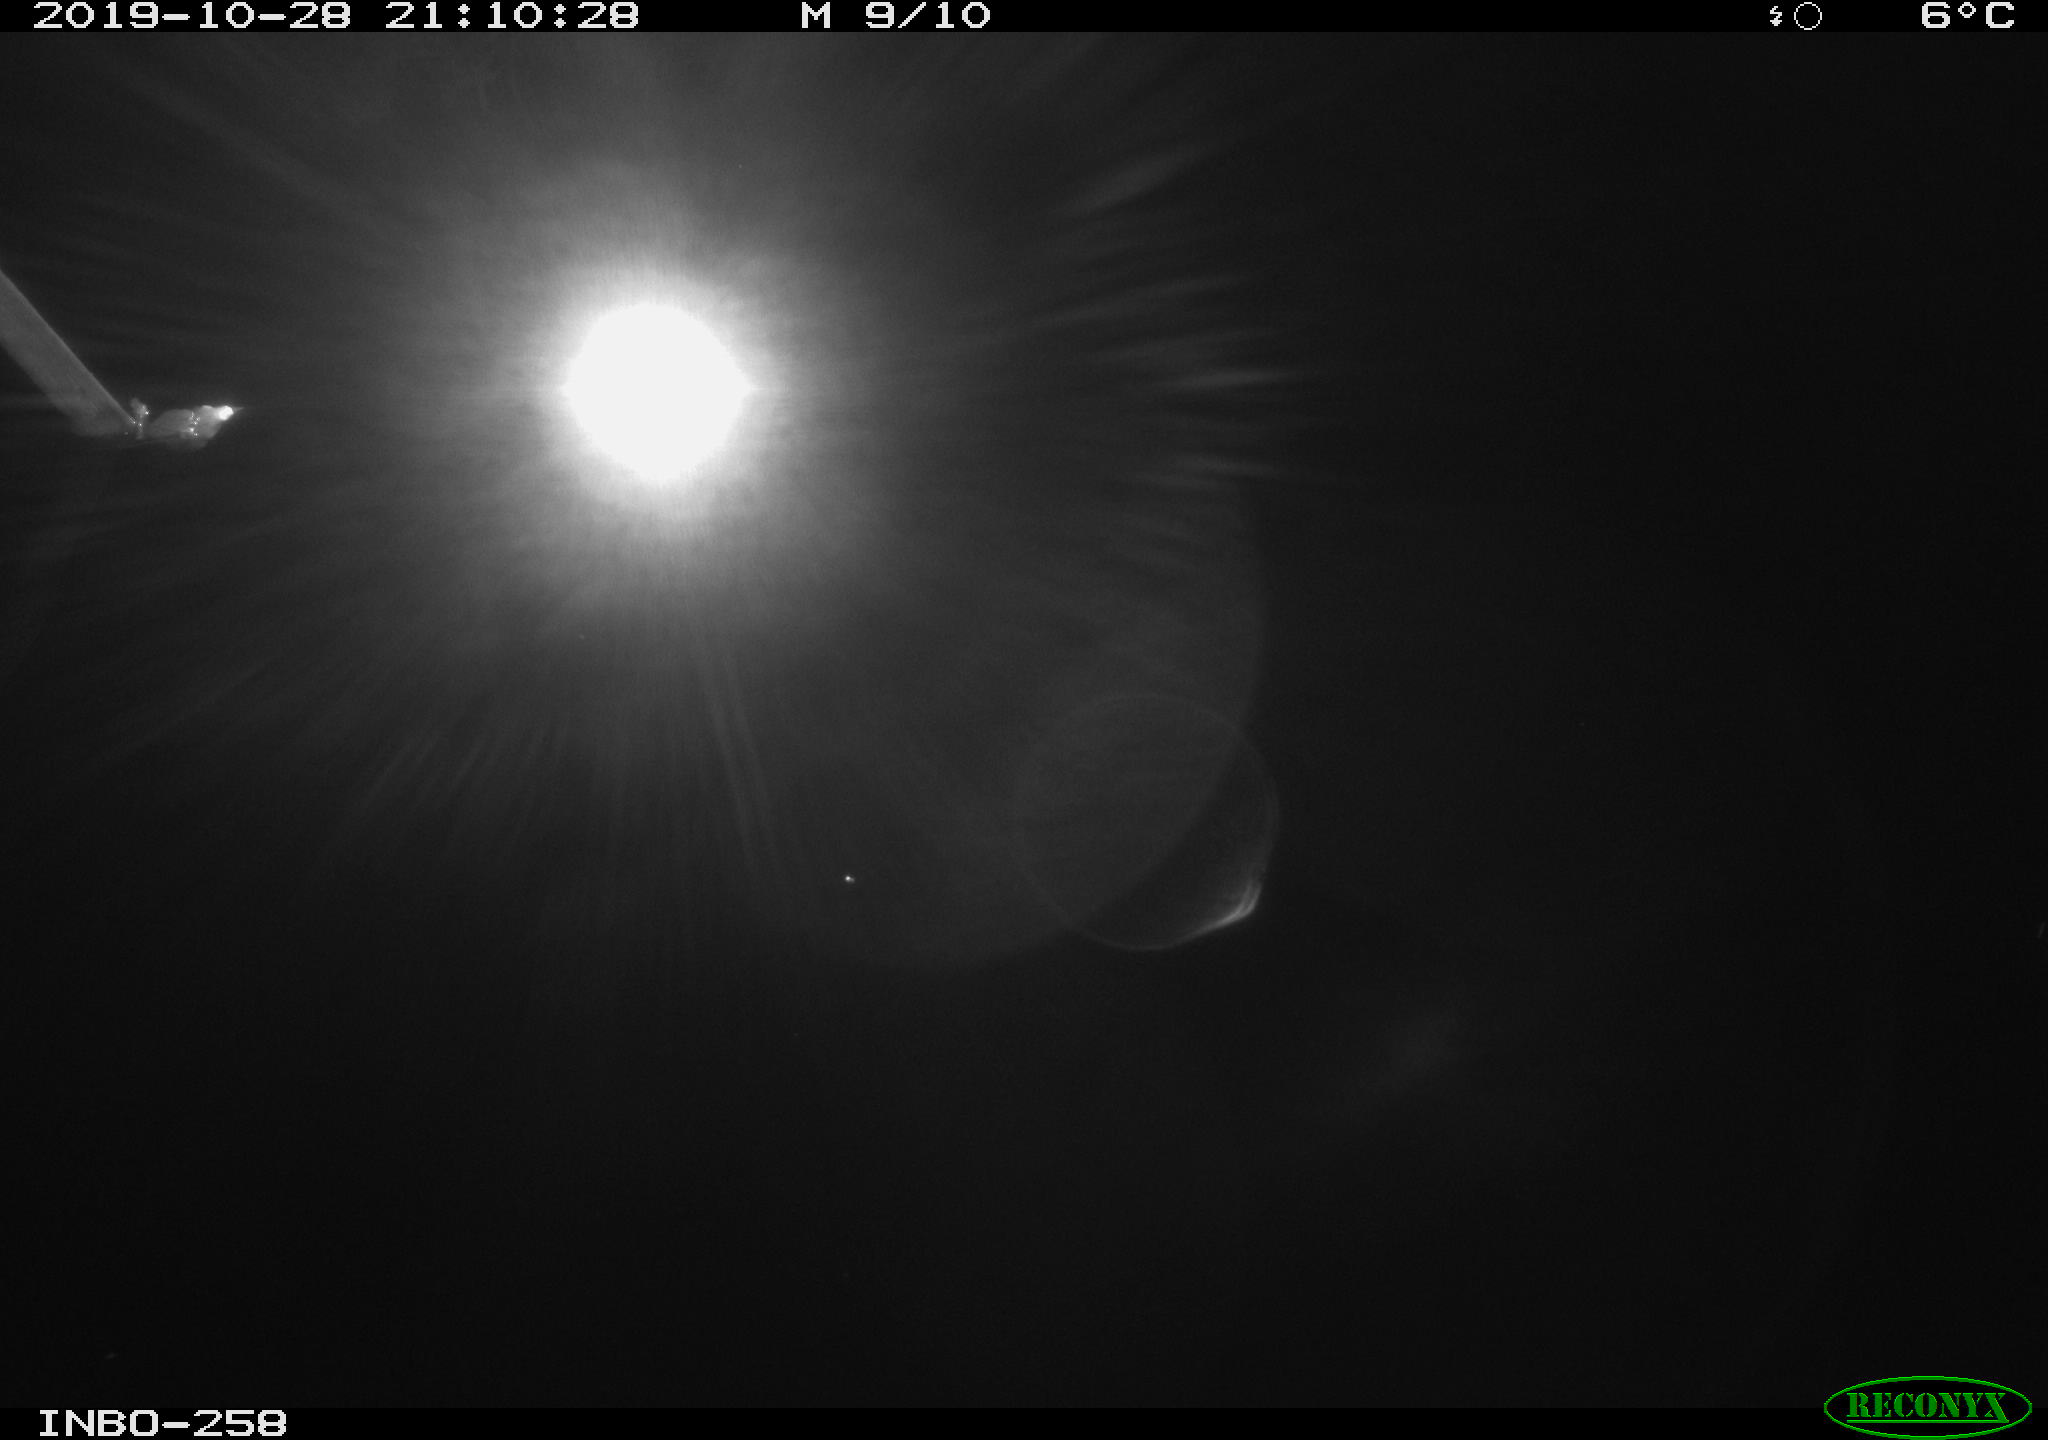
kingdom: Animalia
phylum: Chordata
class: Mammalia
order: Rodentia
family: Muridae
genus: Rattus
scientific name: Rattus norvegicus
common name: Brown rat
